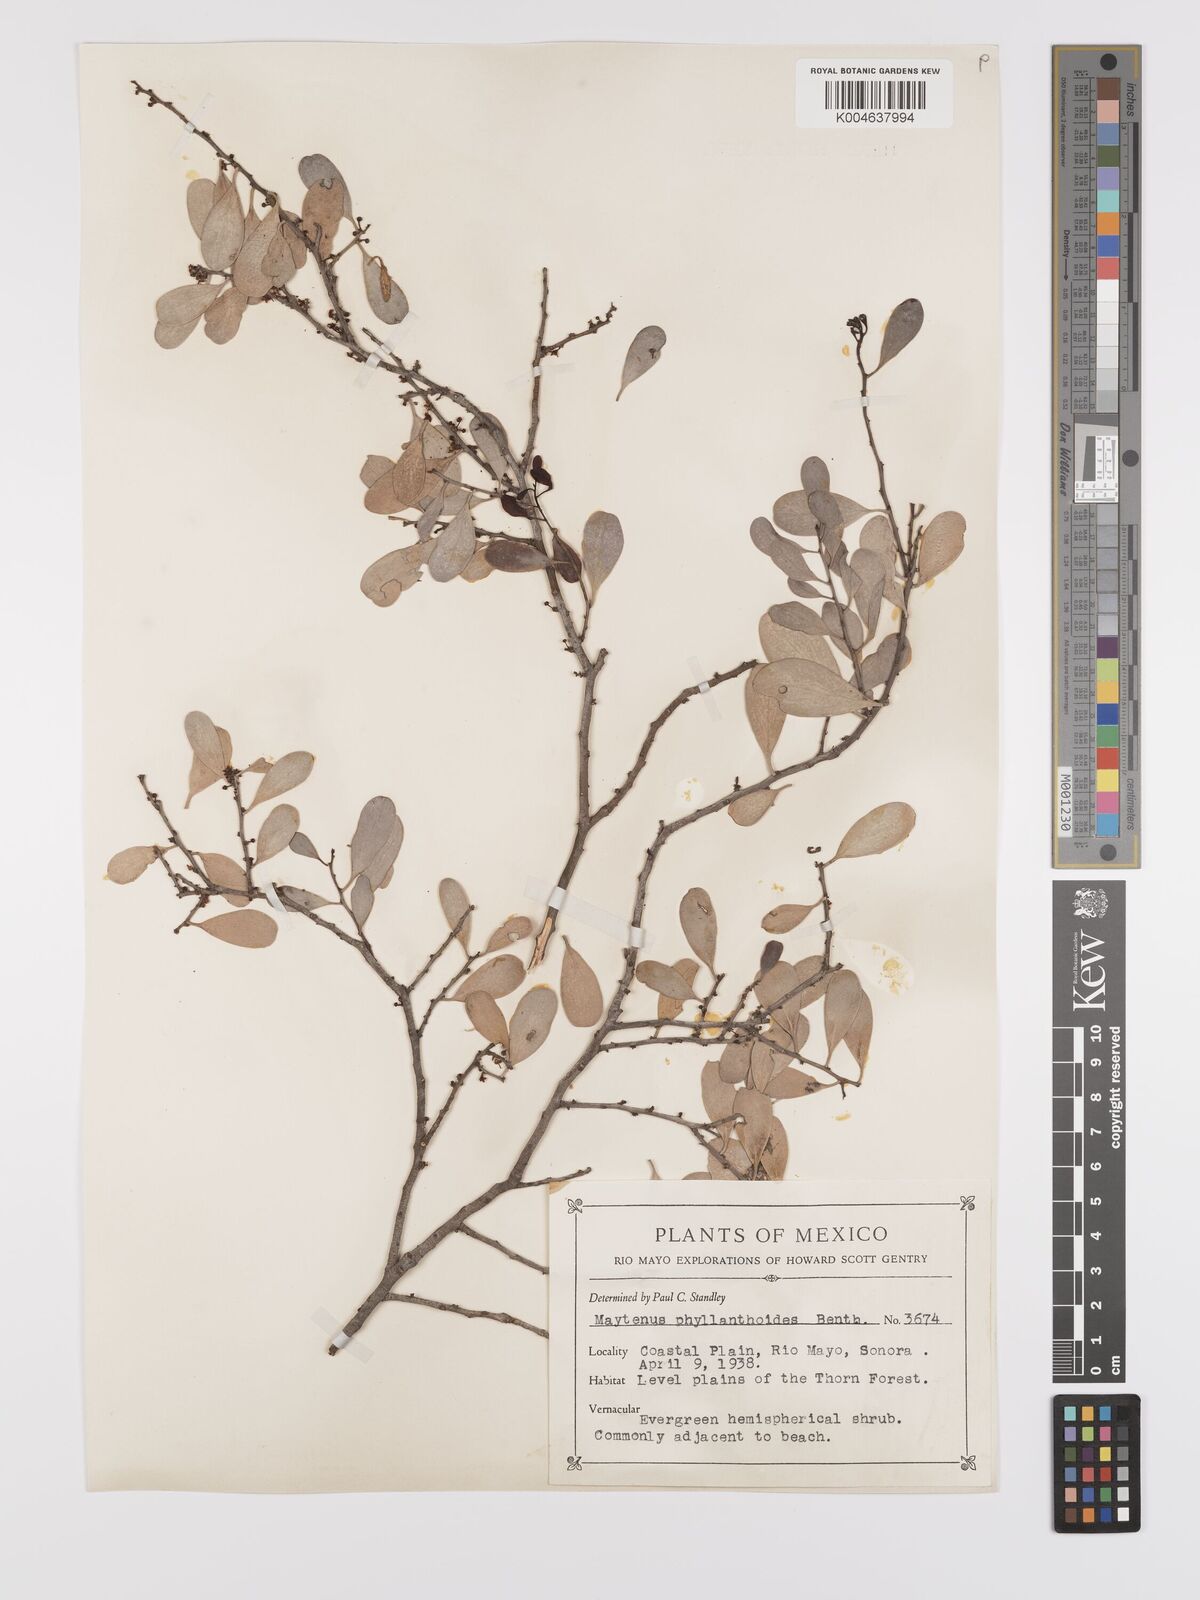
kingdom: Plantae
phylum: Tracheophyta
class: Magnoliopsida
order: Celastrales
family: Celastraceae
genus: Tricerma
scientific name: Tricerma phyllanthoides
